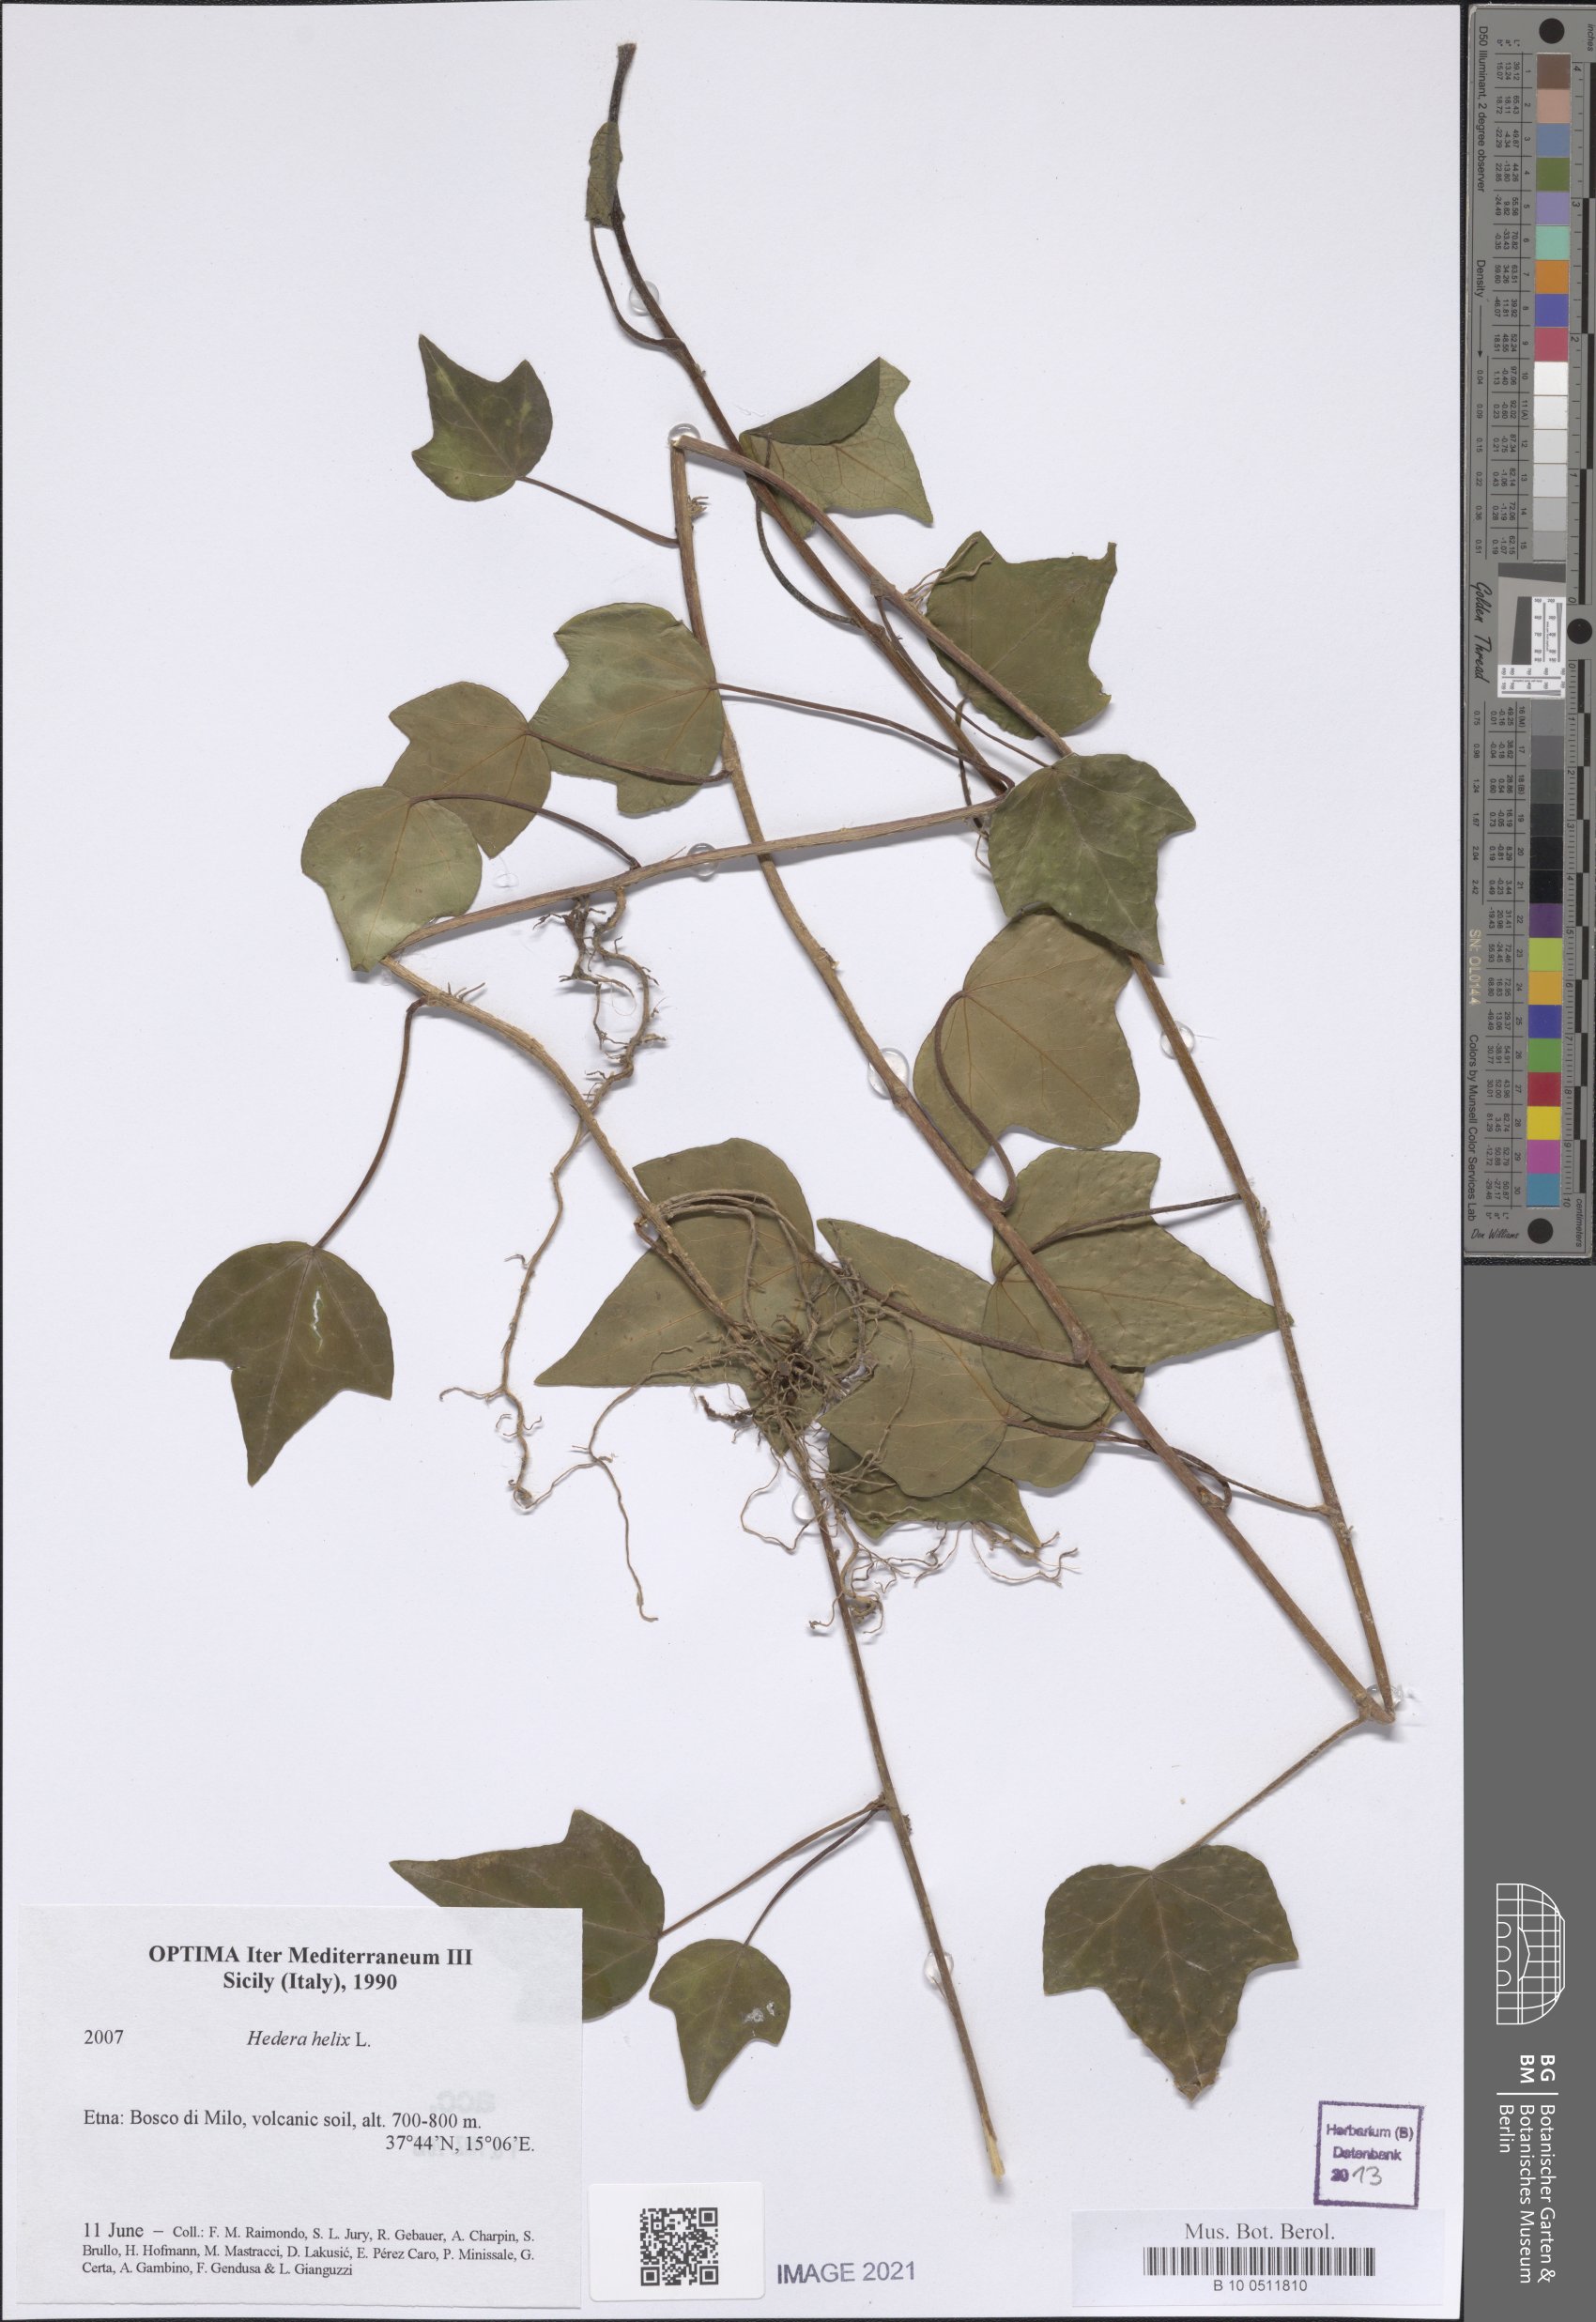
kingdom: Plantae
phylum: Tracheophyta
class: Magnoliopsida
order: Apiales
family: Araliaceae
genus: Hedera
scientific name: Hedera helix
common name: Ivy
